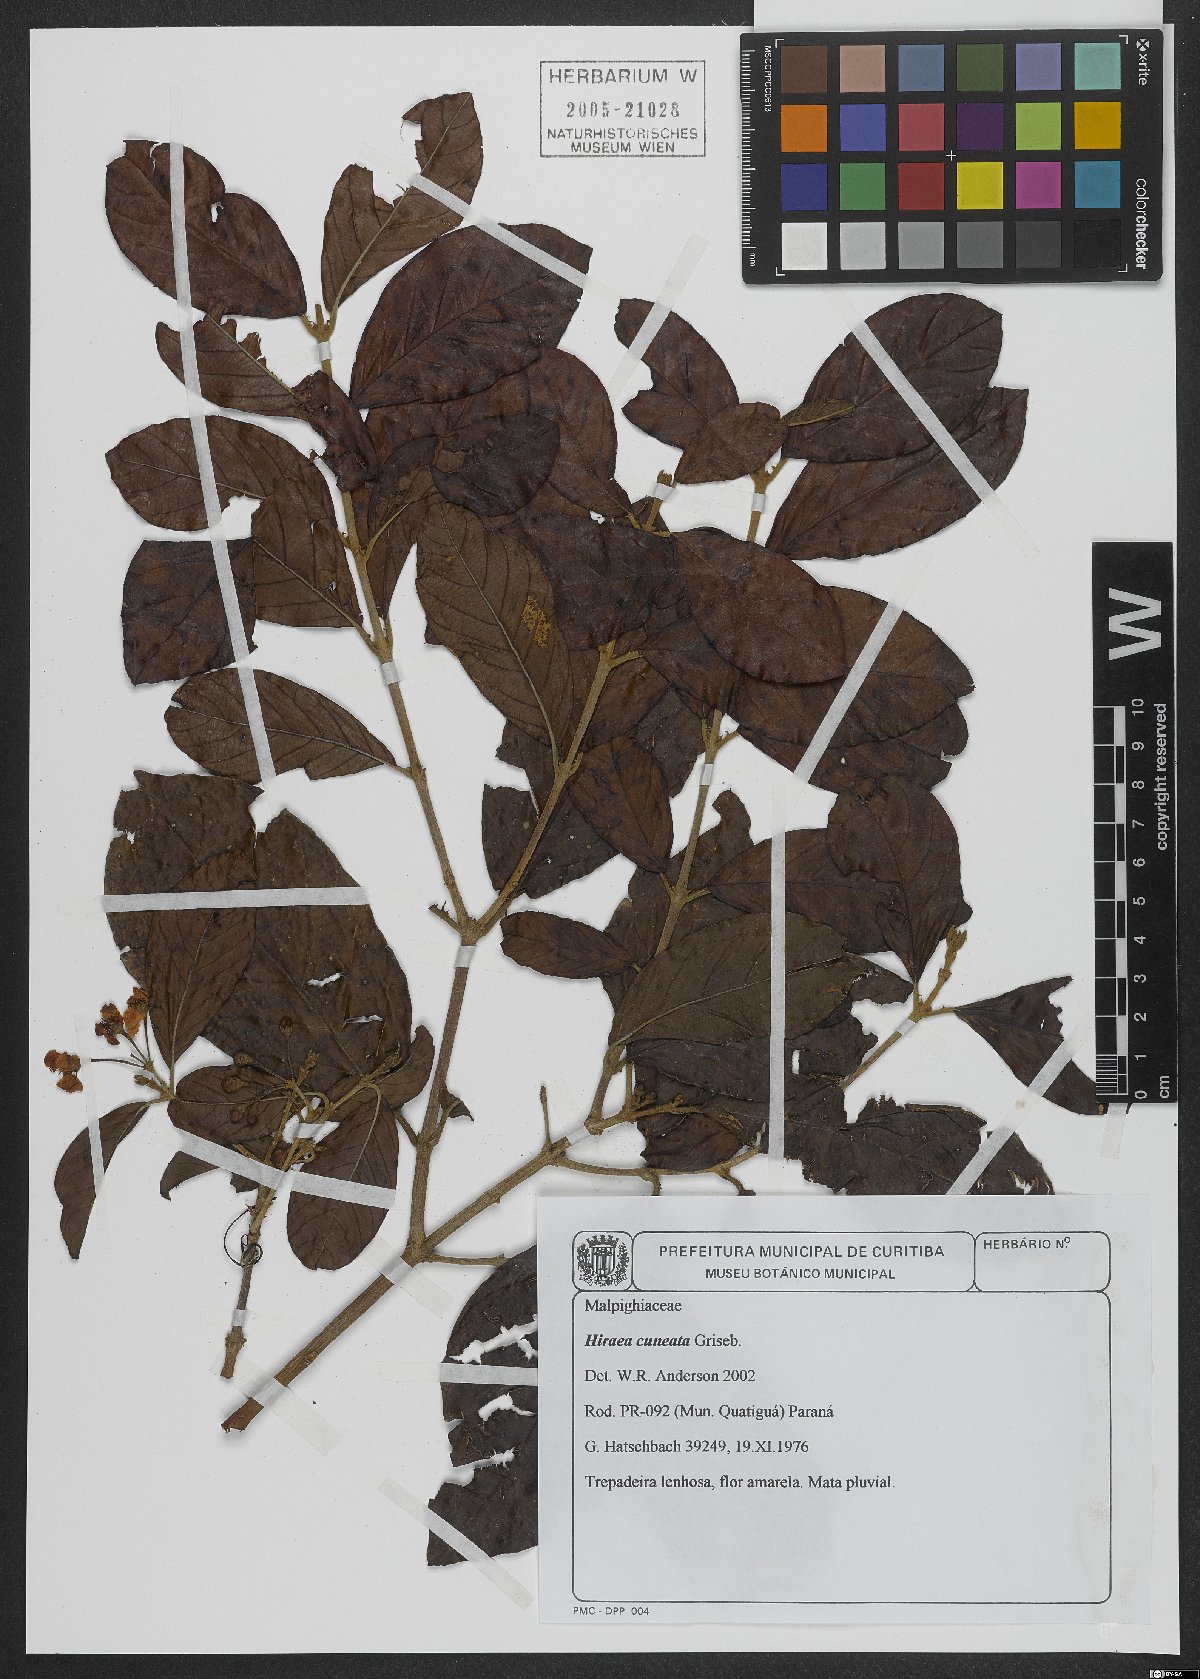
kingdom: Plantae
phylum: Tracheophyta
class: Magnoliopsida
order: Malpighiales
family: Malpighiaceae
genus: Hiraea
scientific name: Hiraea cuneata
